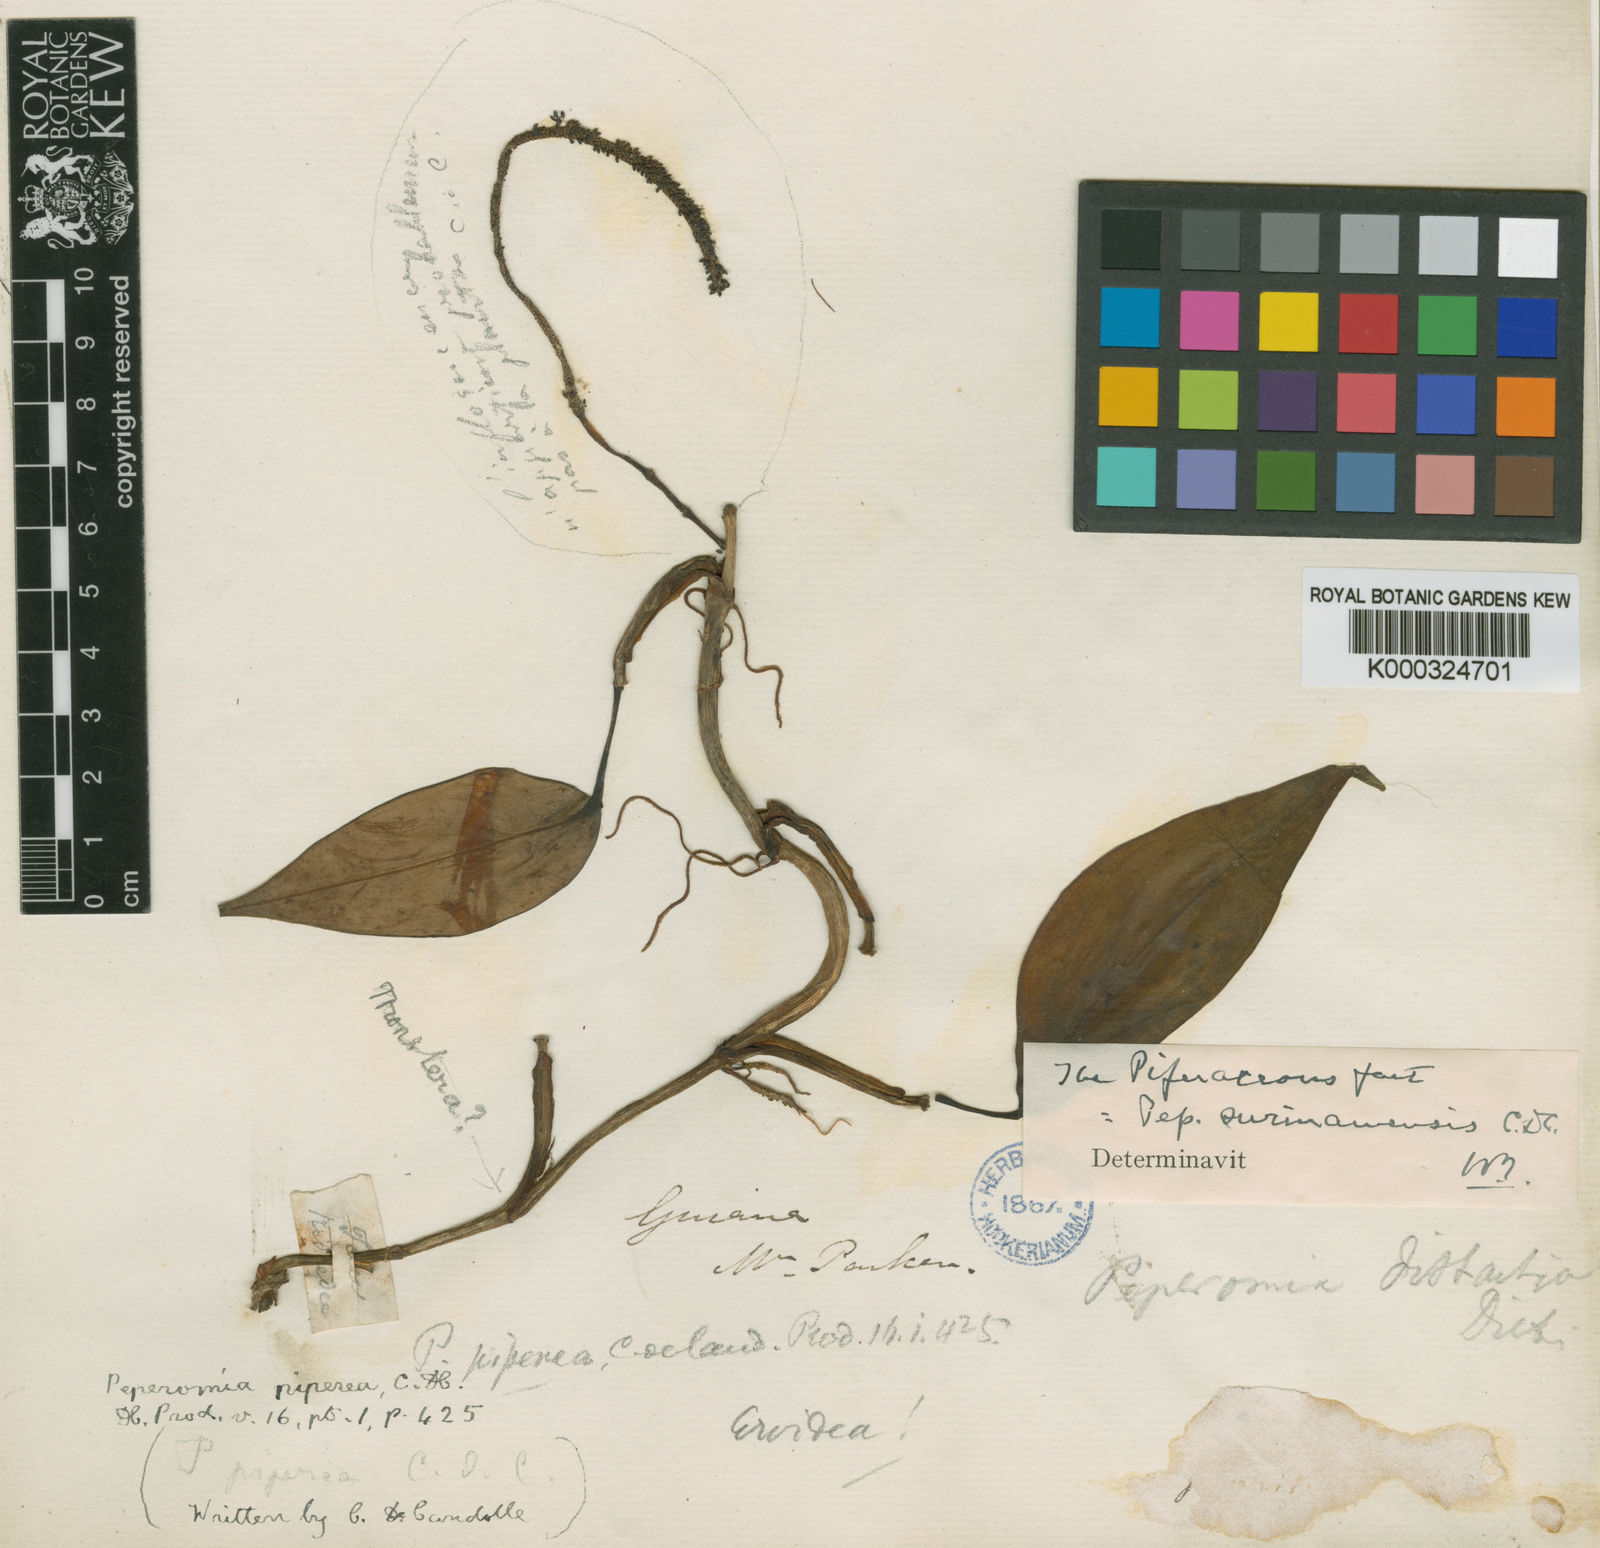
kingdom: Plantae
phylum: Tracheophyta
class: Magnoliopsida
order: Piperales
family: Piperaceae
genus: Peperomia
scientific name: Peperomia
